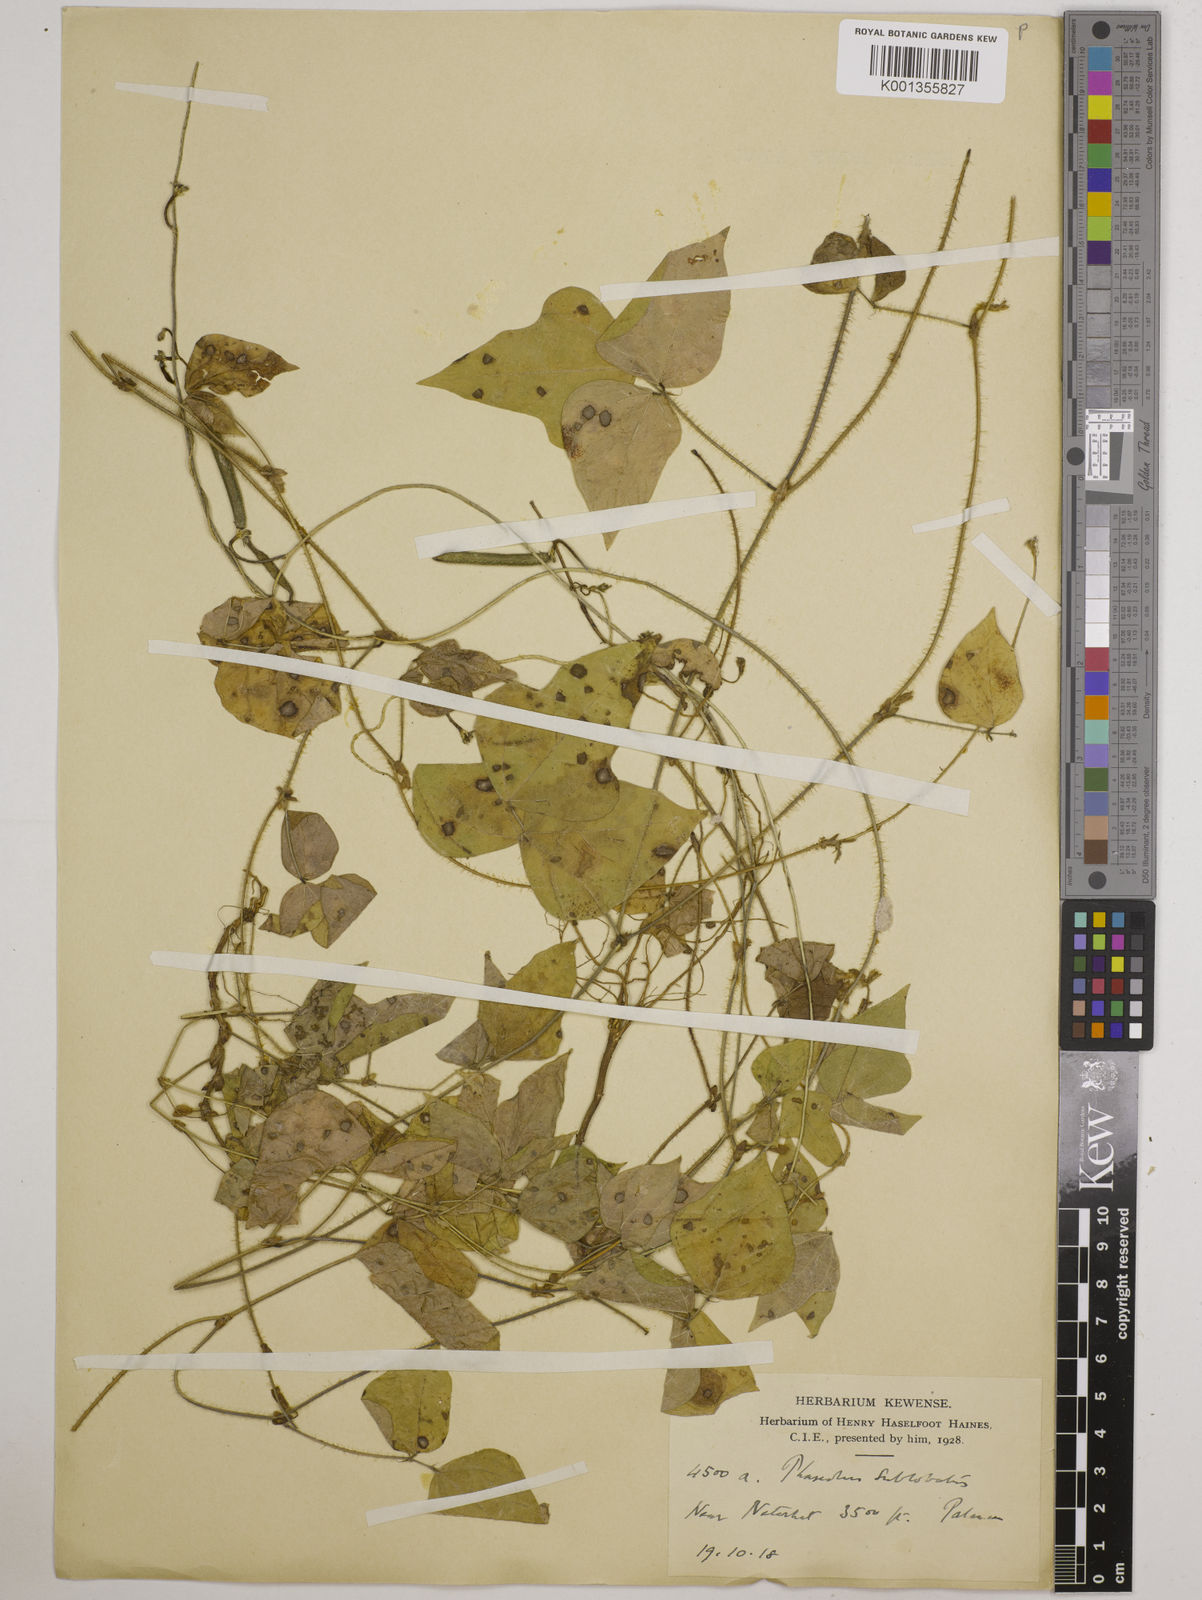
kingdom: Plantae
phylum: Tracheophyta
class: Magnoliopsida
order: Fabales
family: Fabaceae
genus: Vigna
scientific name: Vigna radiata
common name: Mung-bean
